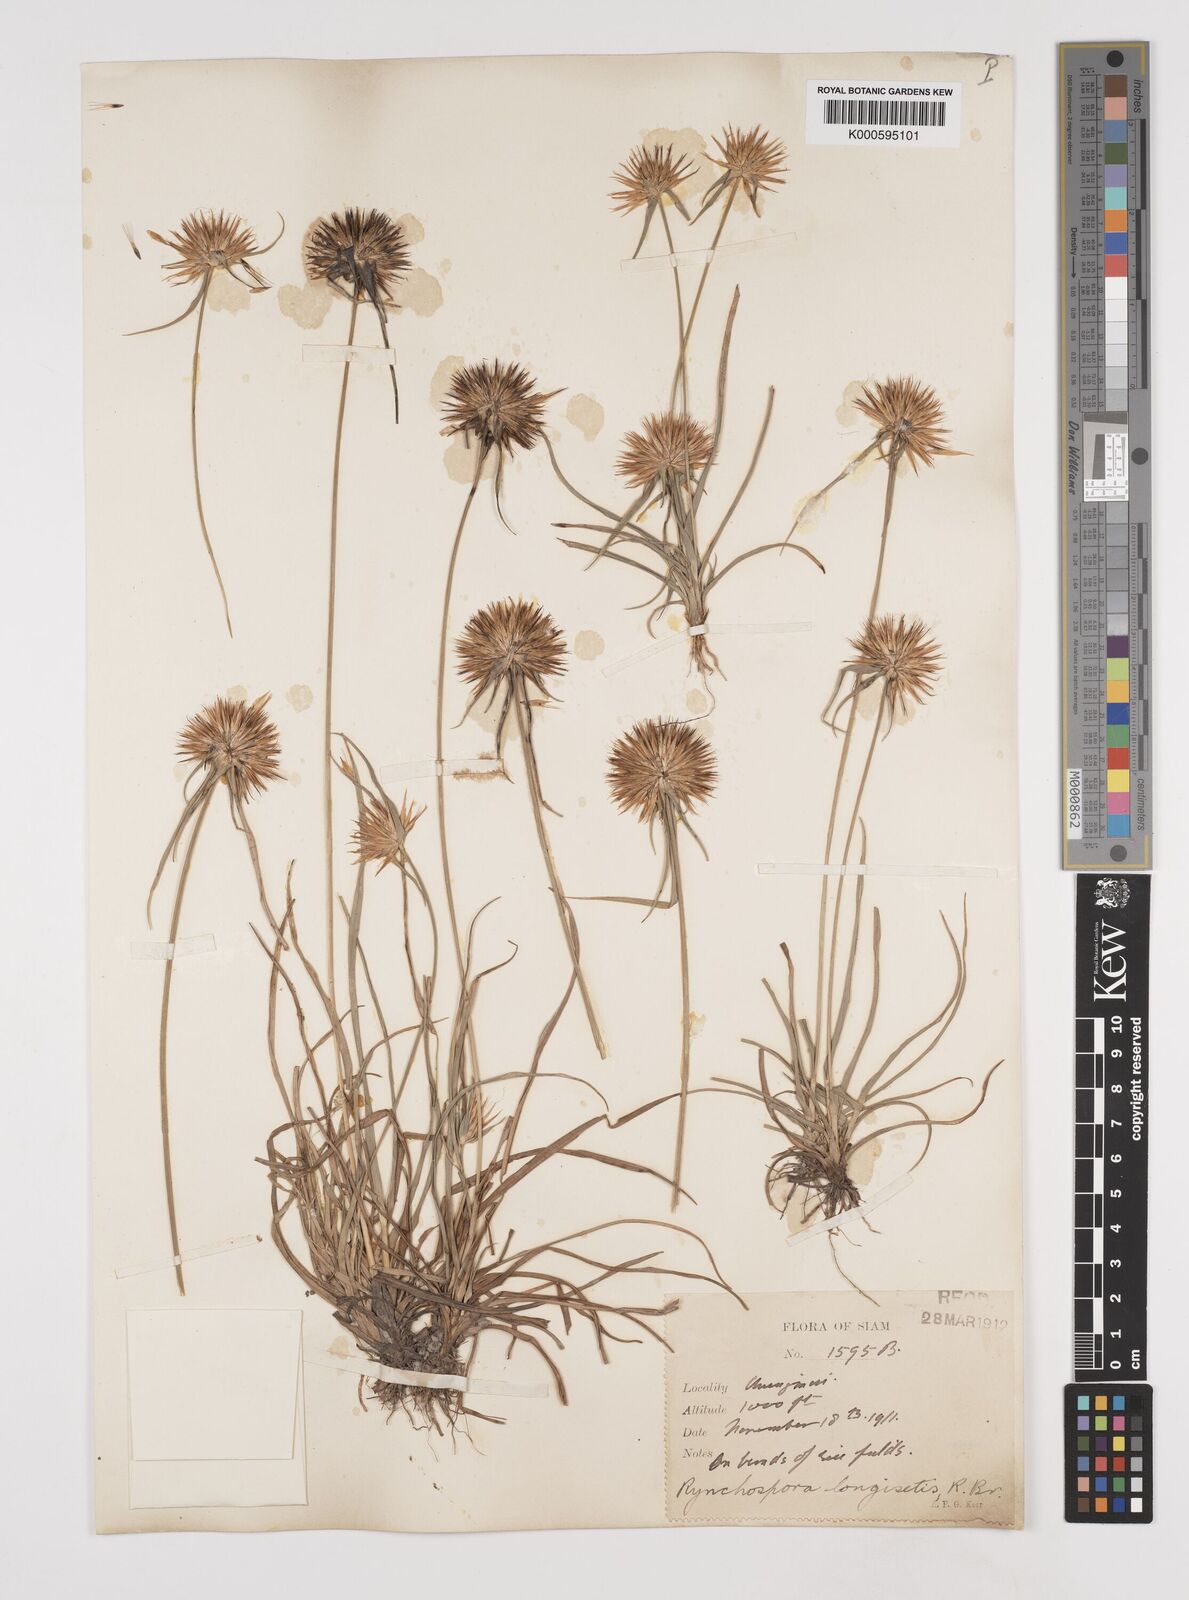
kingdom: Plantae
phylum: Tracheophyta
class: Liliopsida
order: Poales
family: Cyperaceae
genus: Rhynchospora
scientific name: Rhynchospora longisetis
